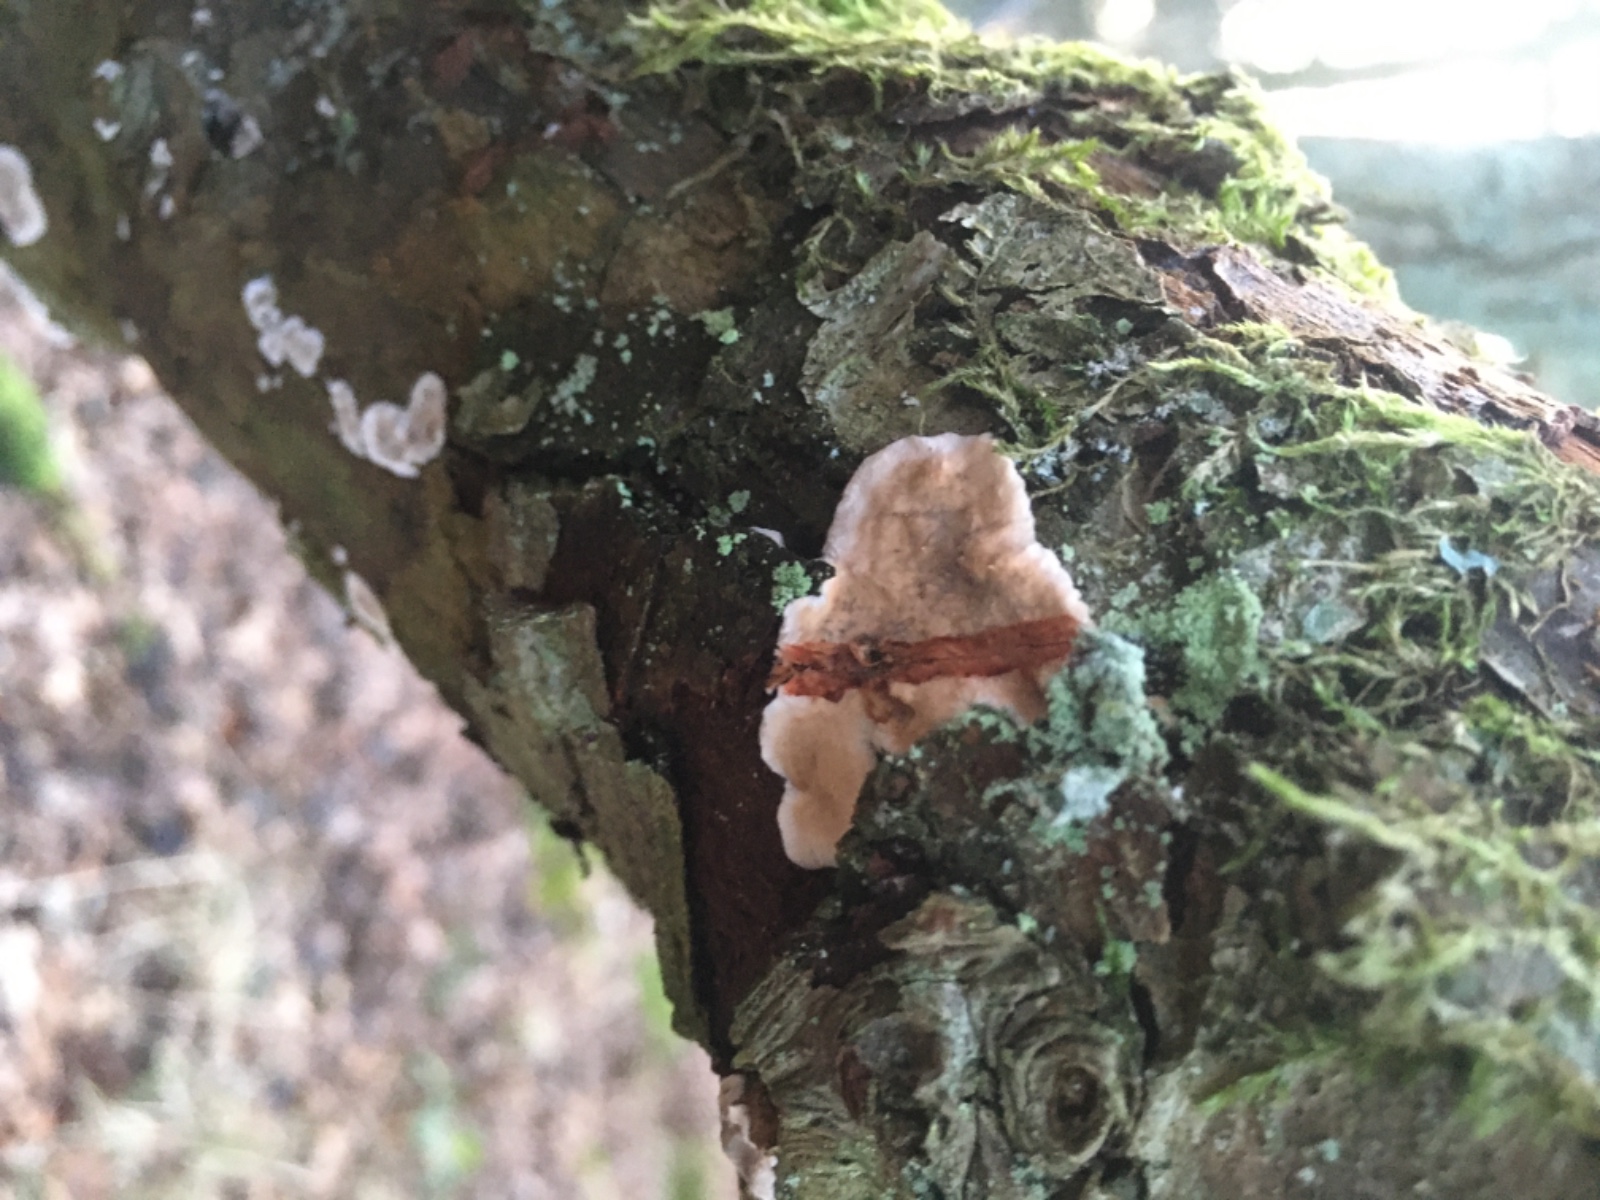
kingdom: Fungi
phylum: Basidiomycota
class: Agaricomycetes
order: Russulales
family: Stereaceae
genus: Stereum
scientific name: Stereum rugosum
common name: rynket lædersvamp
